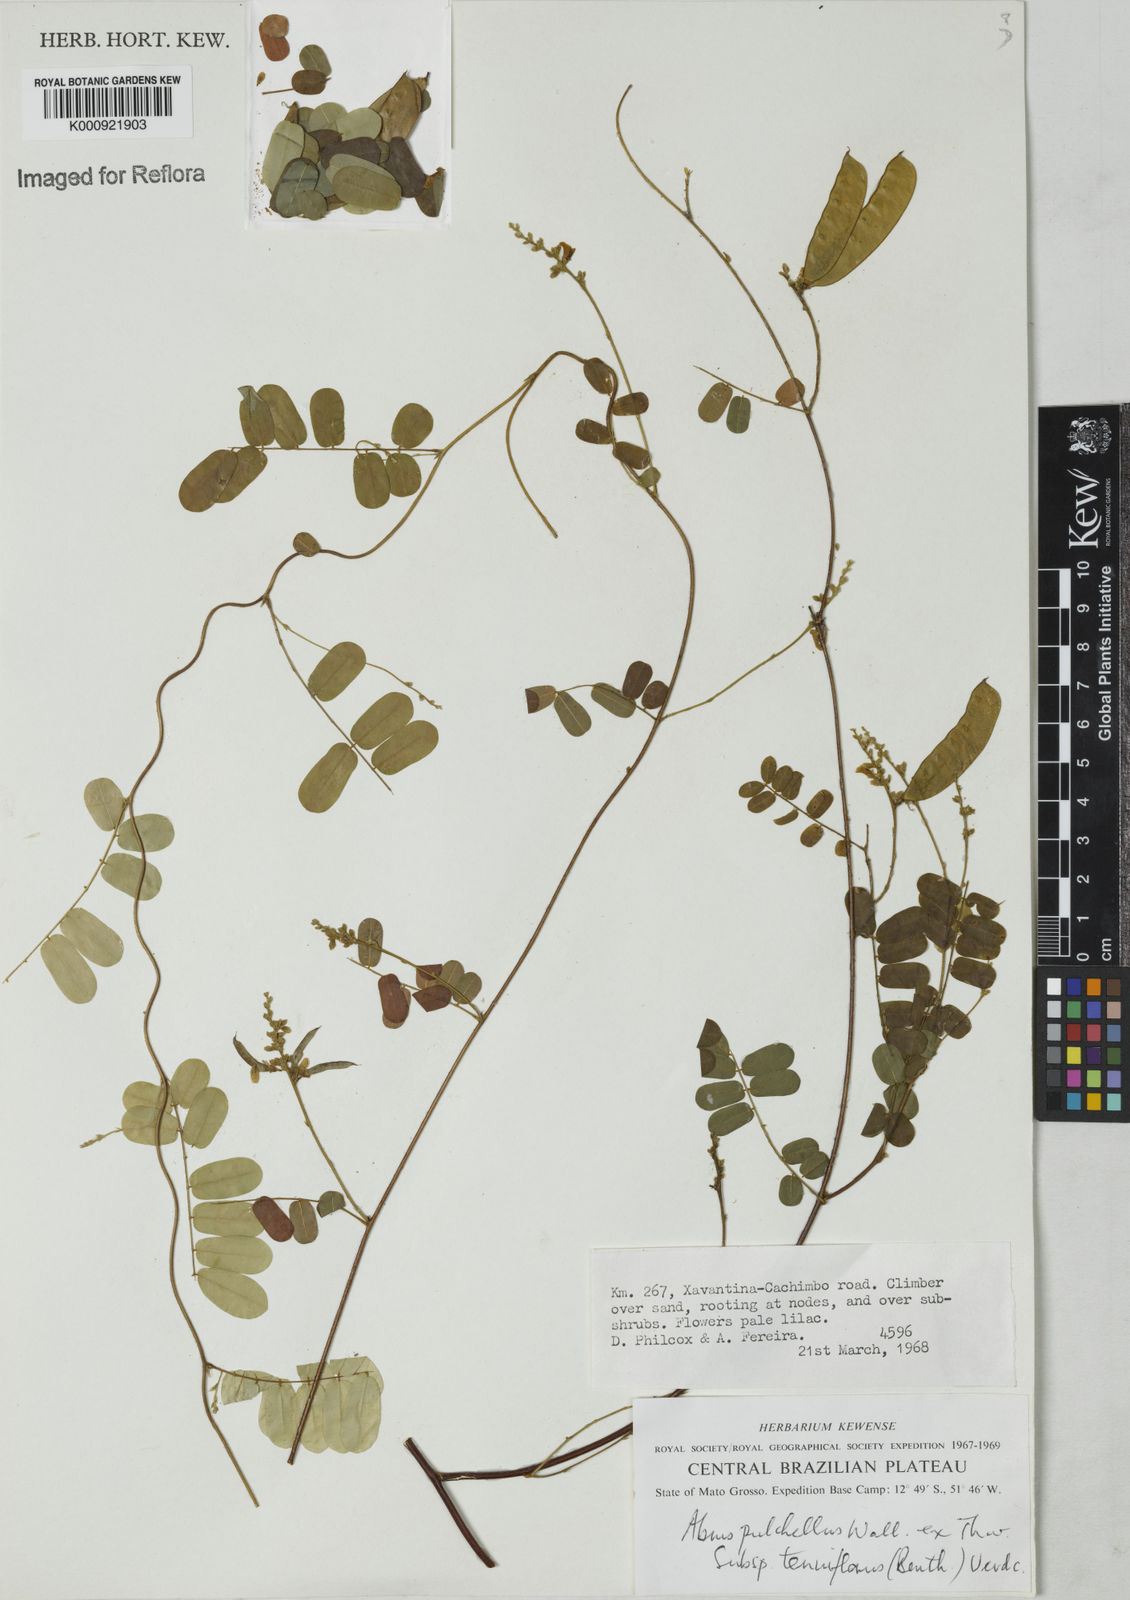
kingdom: Plantae
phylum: Tracheophyta
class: Magnoliopsida
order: Fabales
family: Fabaceae
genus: Abrus
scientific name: Abrus melanospermus
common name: Licorice-root
